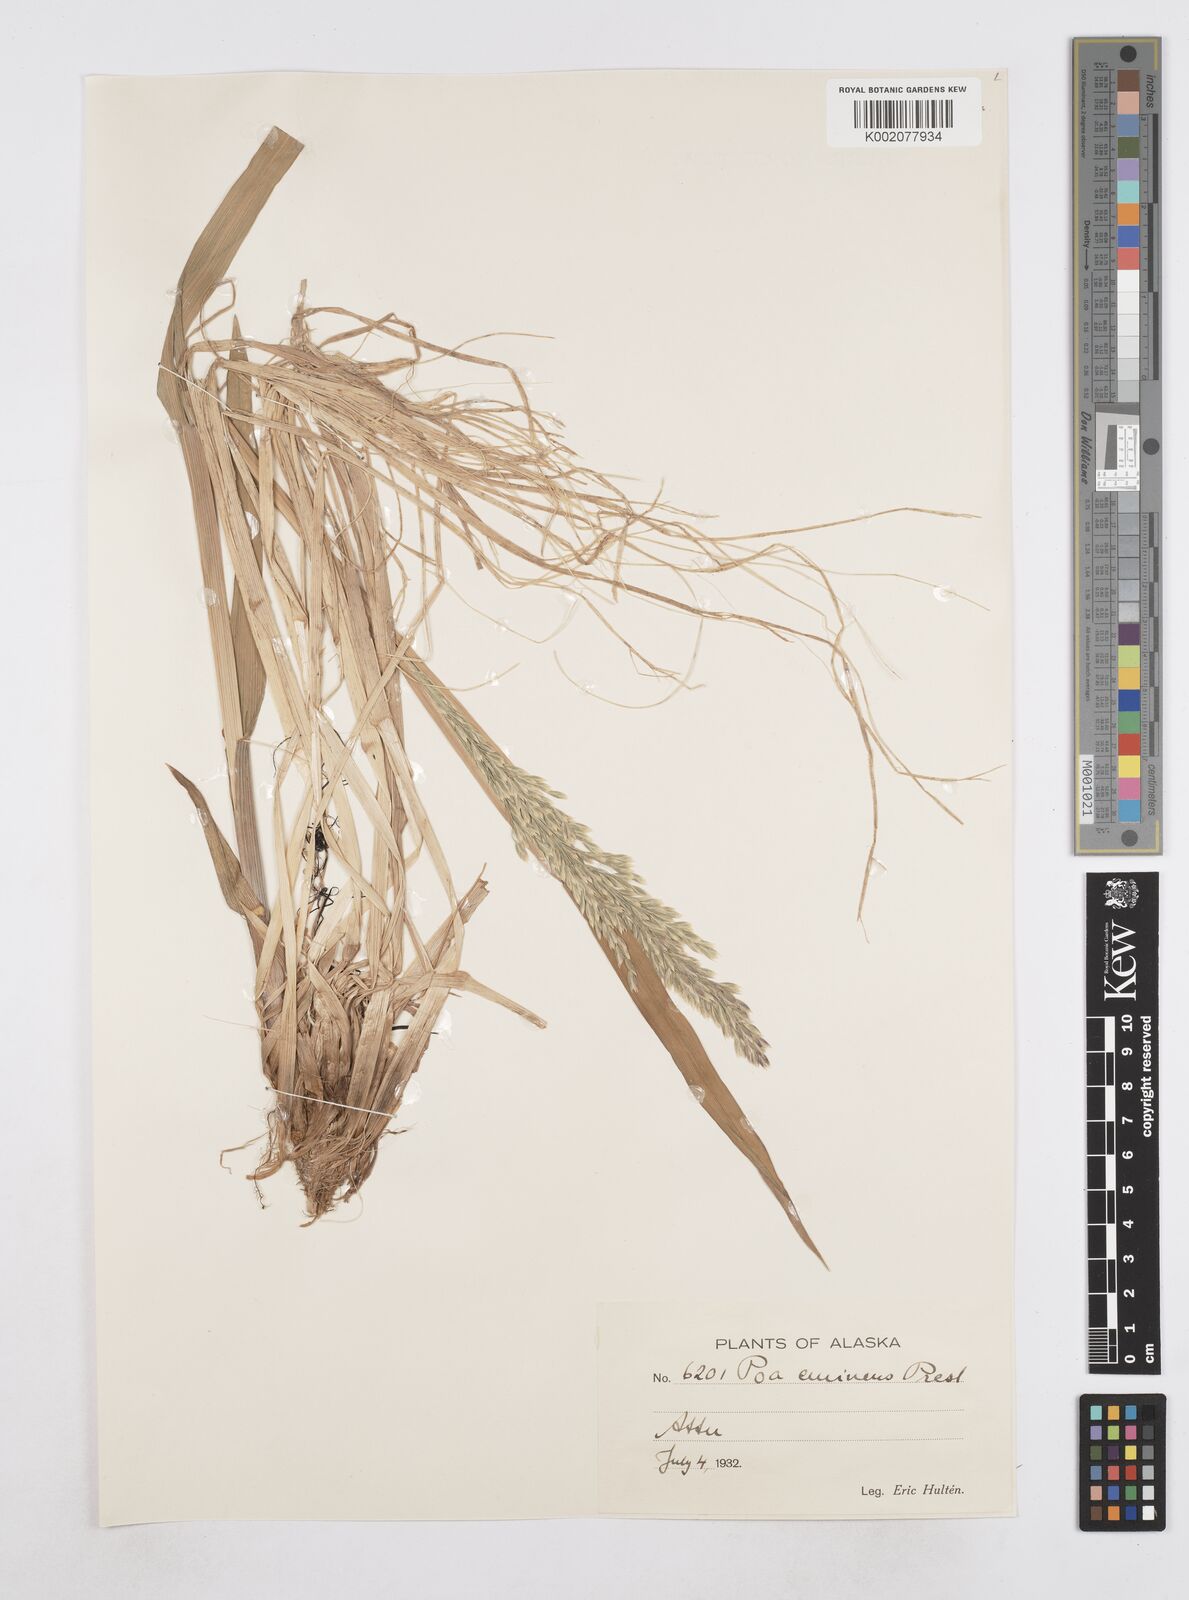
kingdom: Plantae
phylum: Tracheophyta
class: Liliopsida
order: Poales
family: Poaceae
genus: Arctopoa
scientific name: Arctopoa eminens
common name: Eminent bluegrass
